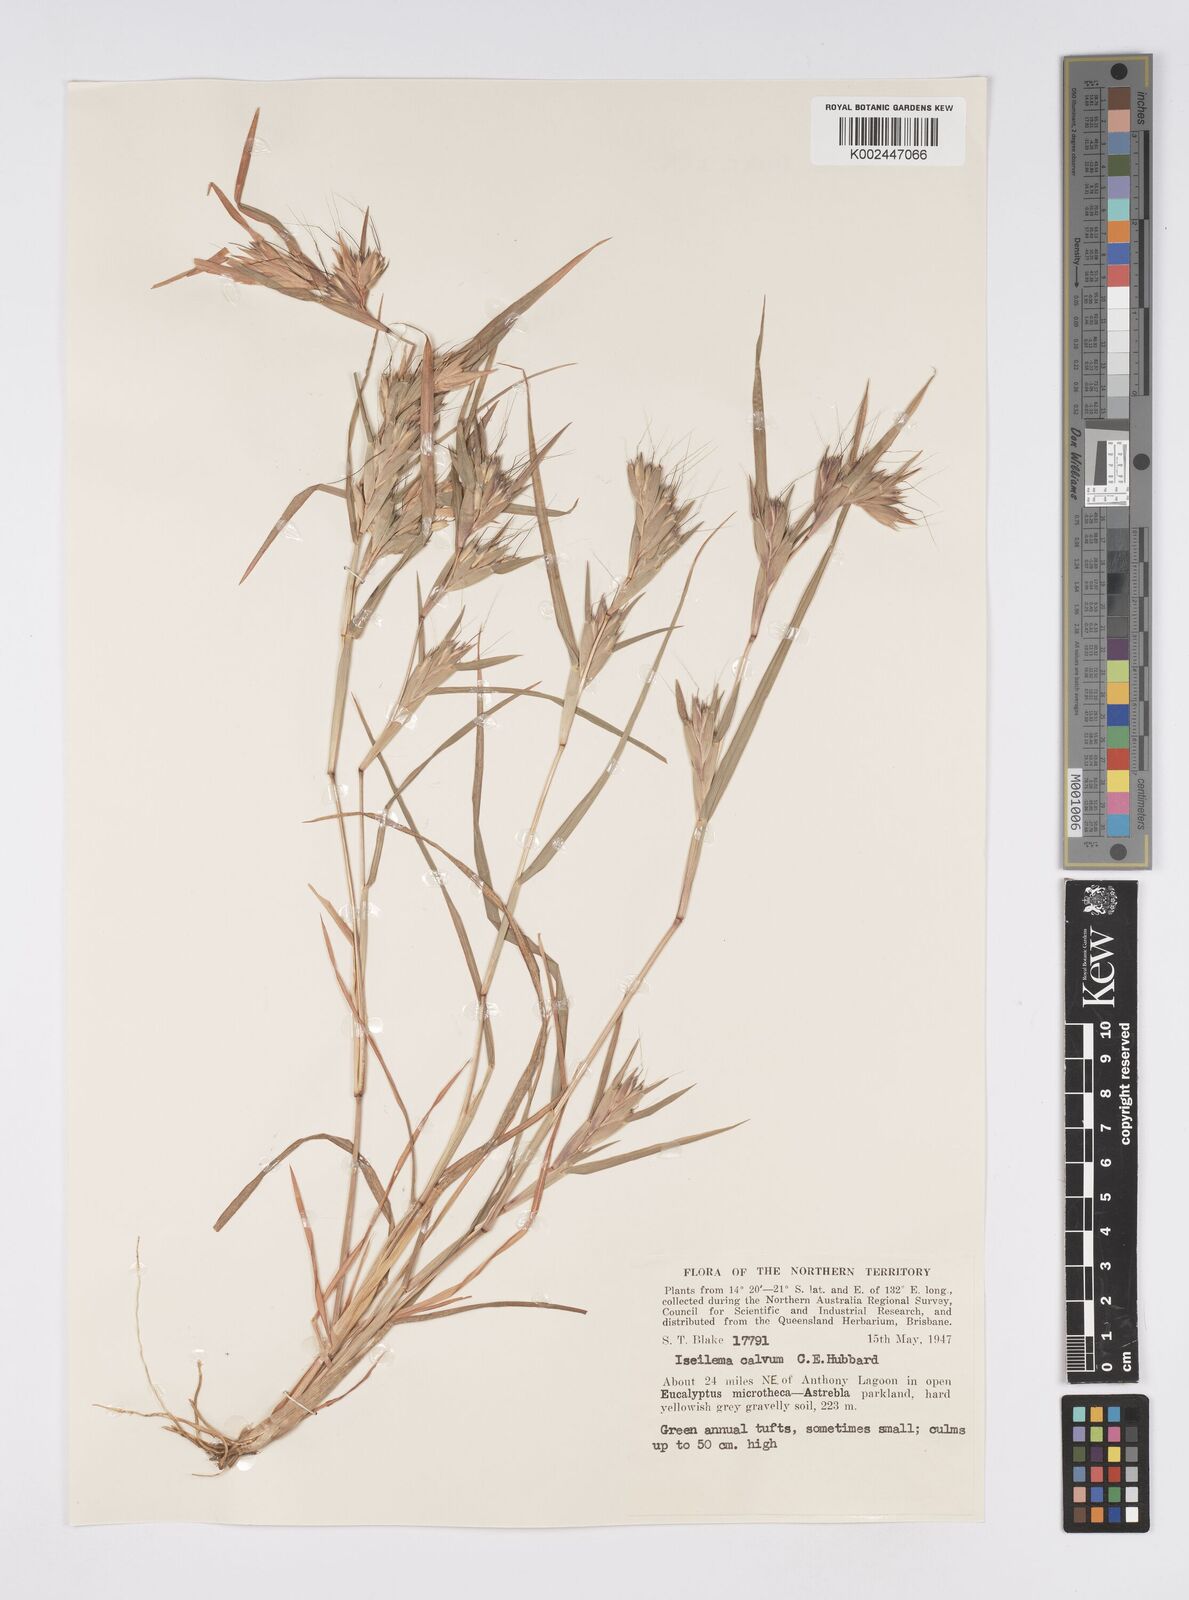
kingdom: Plantae
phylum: Tracheophyta
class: Liliopsida
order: Poales
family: Poaceae
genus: Iseilema
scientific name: Iseilema calvum
